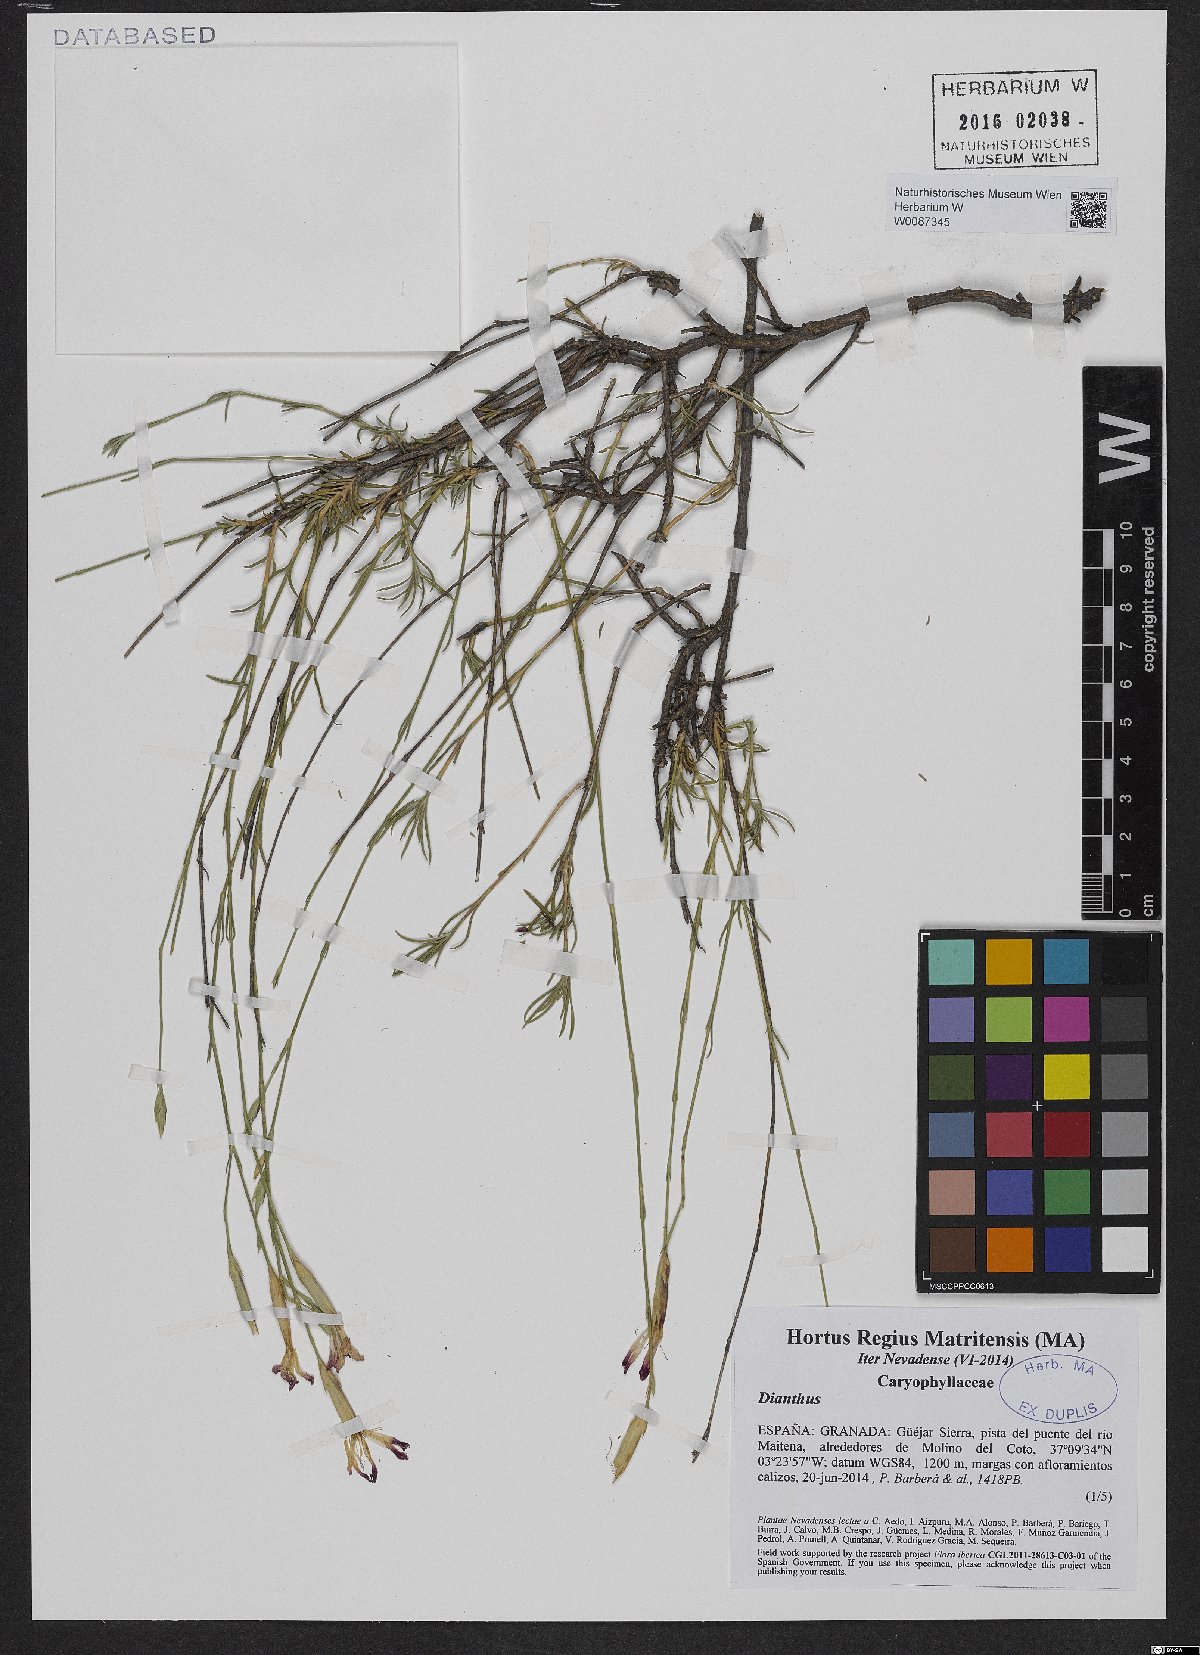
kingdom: Plantae
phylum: Tracheophyta
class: Magnoliopsida
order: Caryophyllales
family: Caryophyllaceae
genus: Dianthus
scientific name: Dianthus
